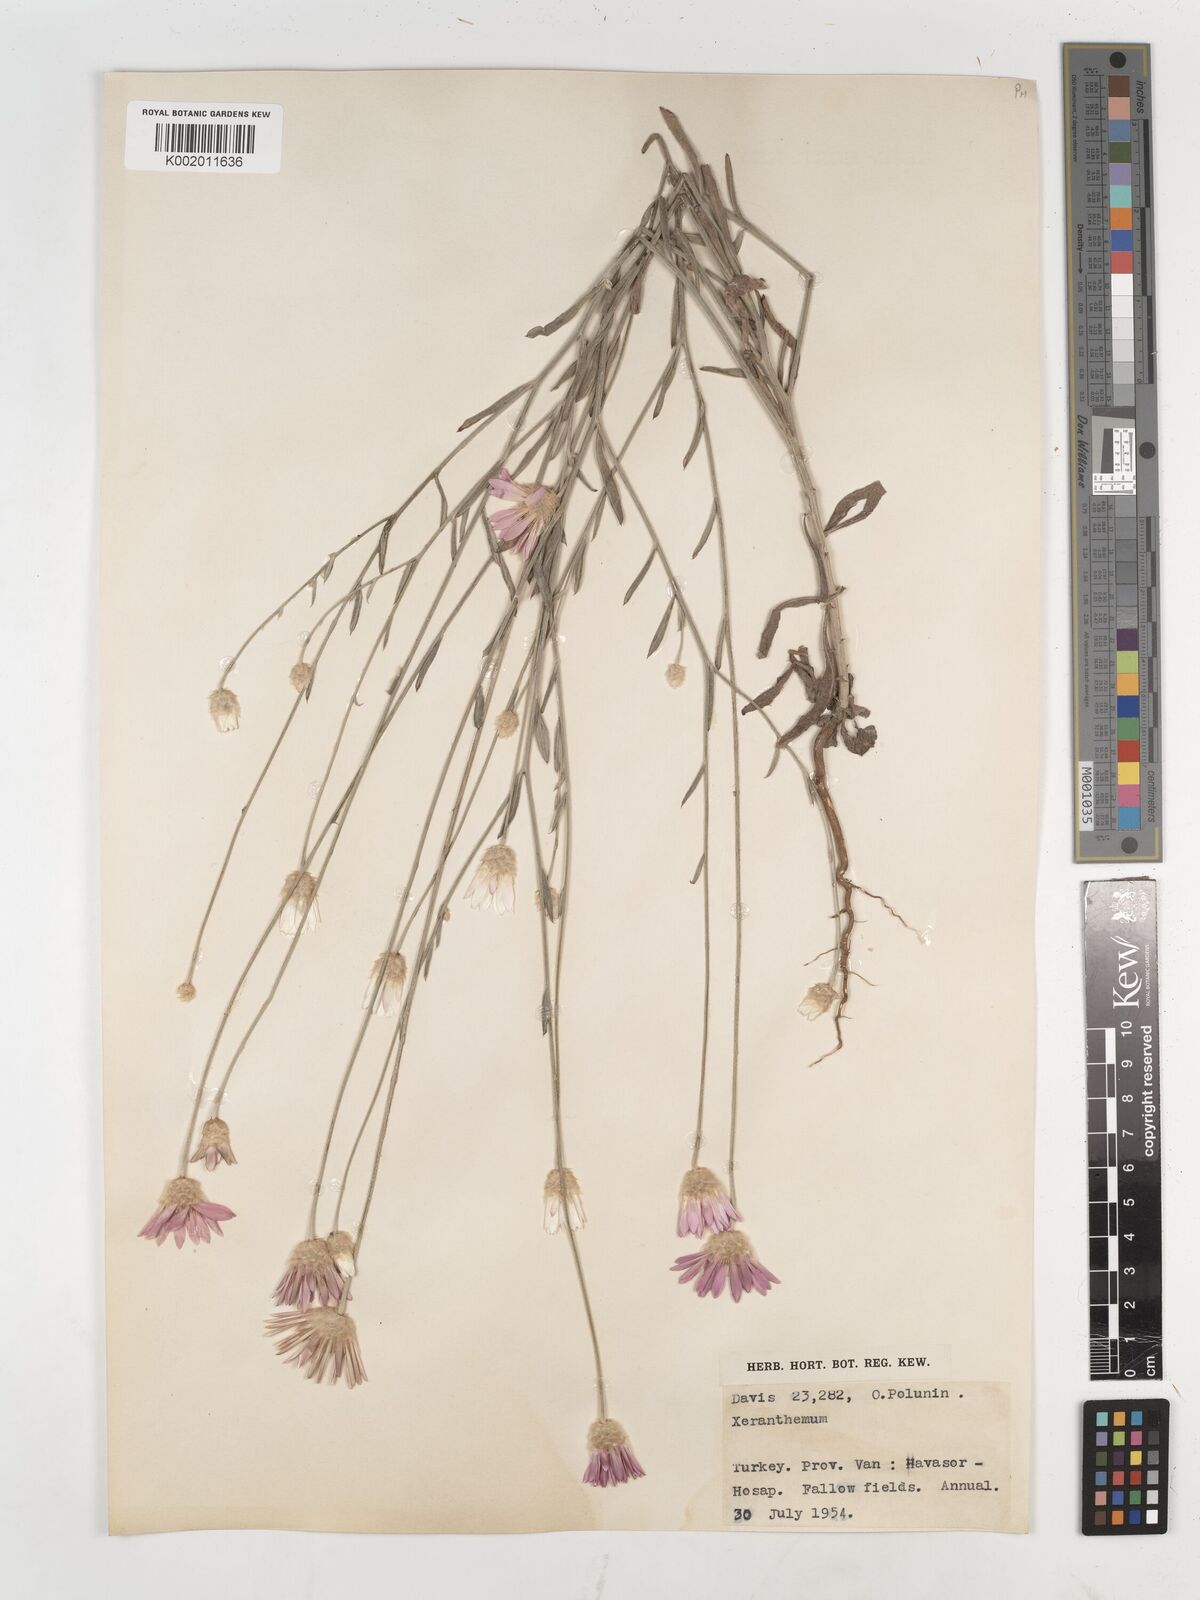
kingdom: Plantae
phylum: Tracheophyta
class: Magnoliopsida
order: Asterales
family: Asteraceae
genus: Xeranthemum
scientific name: Xeranthemum annuum
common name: Immortelle
